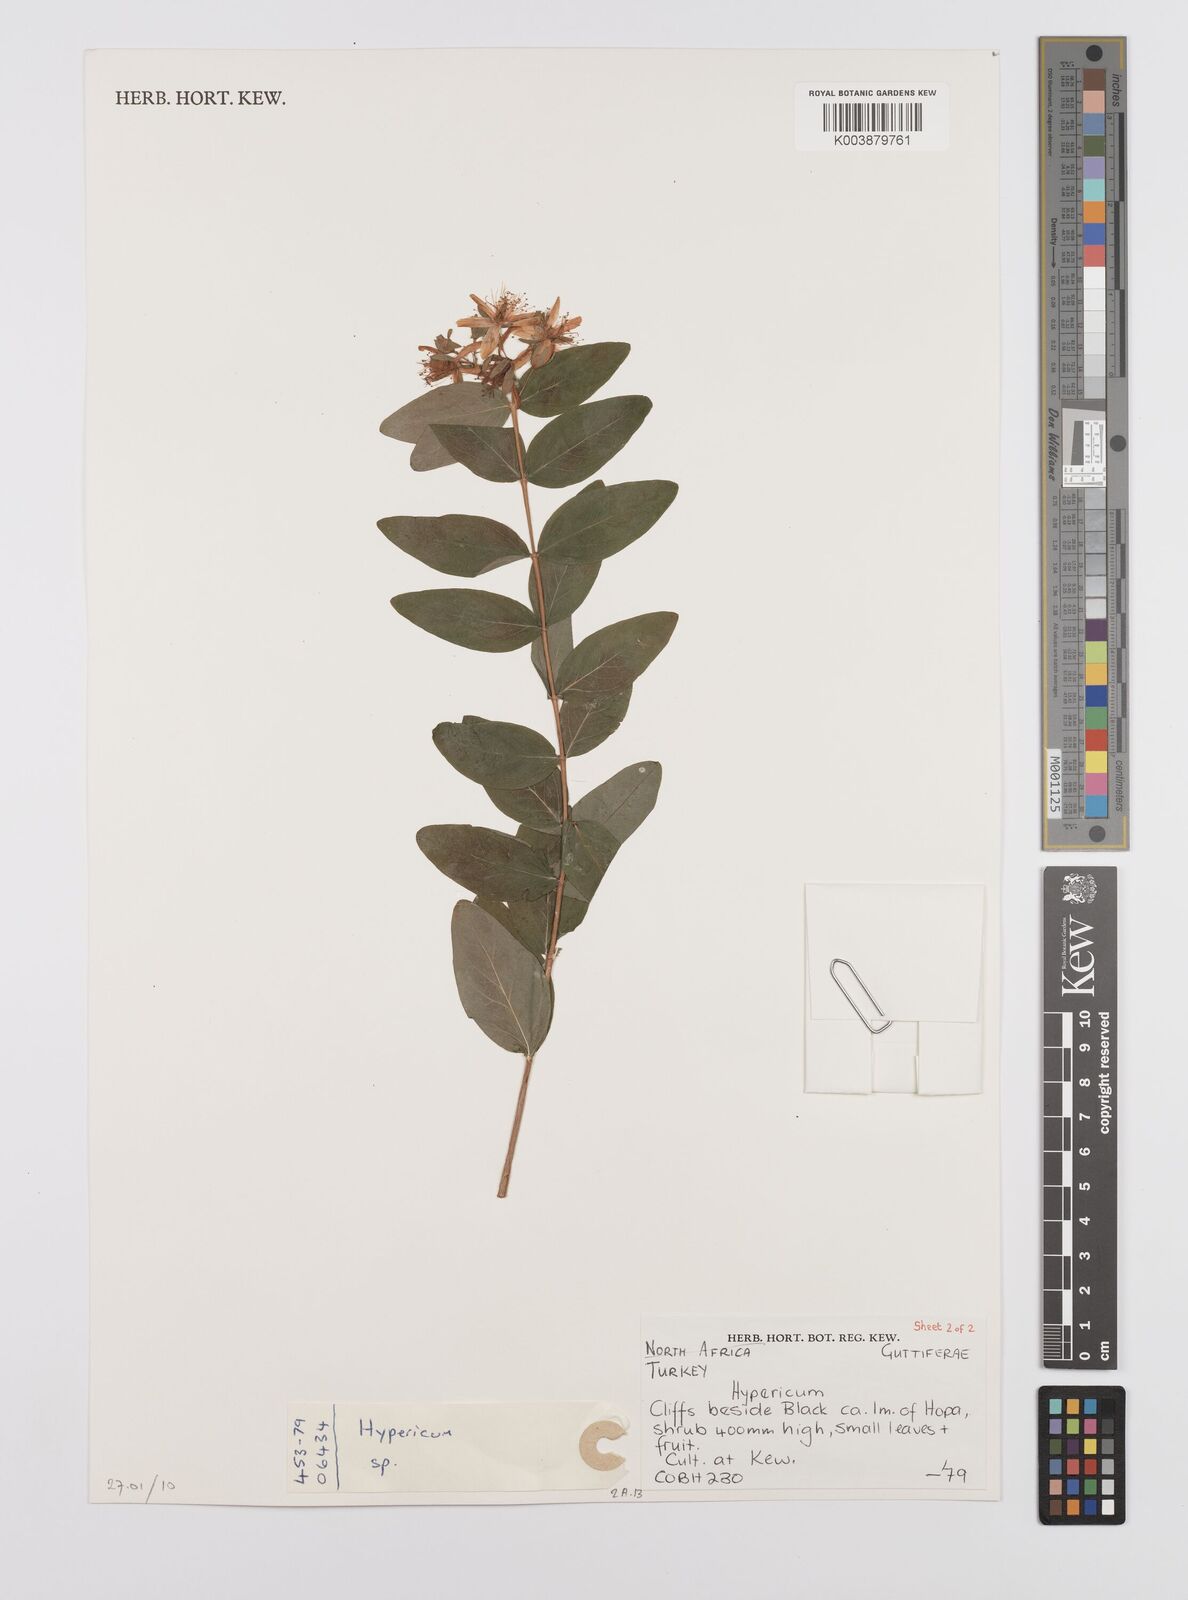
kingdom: Plantae
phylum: Tracheophyta
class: Magnoliopsida
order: Malpighiales
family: Hypericaceae
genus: Hypericum
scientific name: Hypericum xylosteifolium
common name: Turkish tutsan
